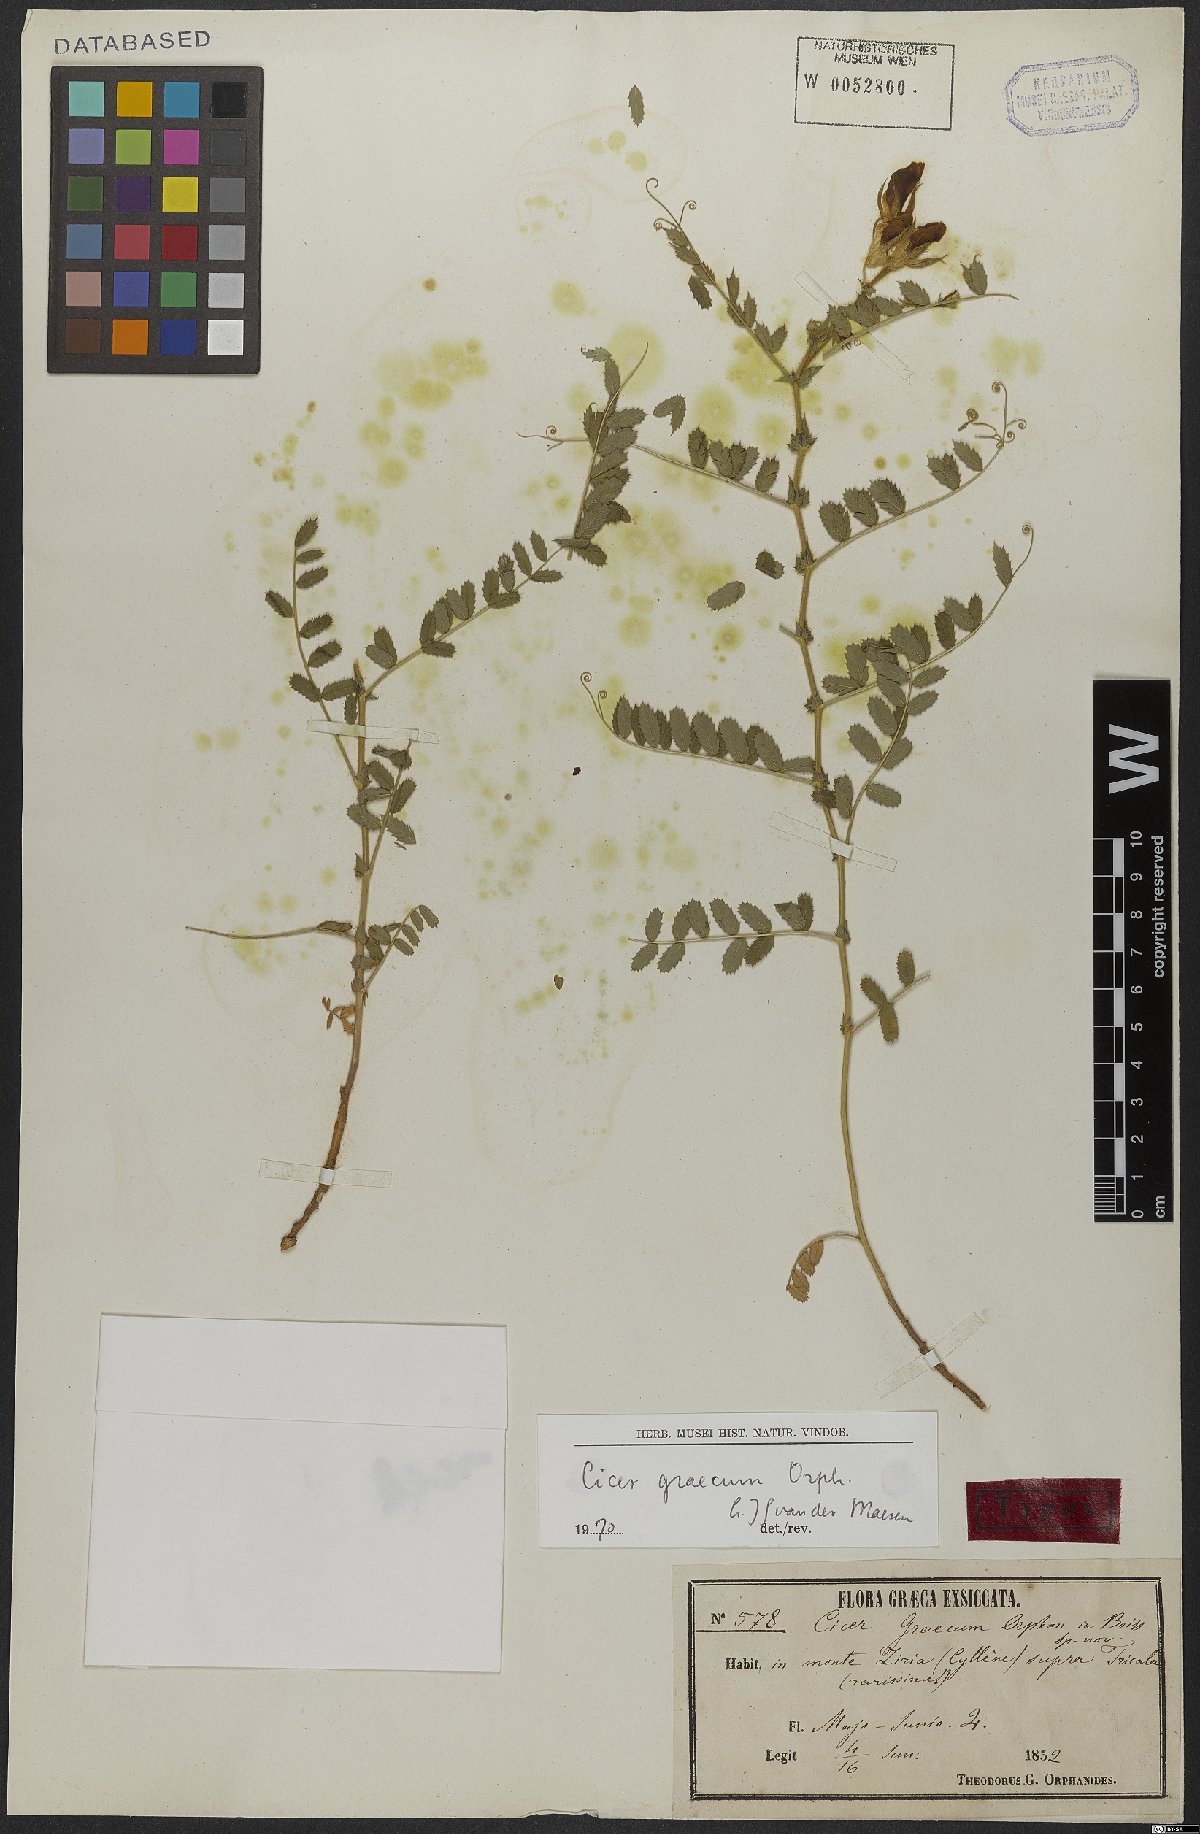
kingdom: Plantae
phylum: Tracheophyta
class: Magnoliopsida
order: Fabales
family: Fabaceae
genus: Cicer
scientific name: Cicer graecum
